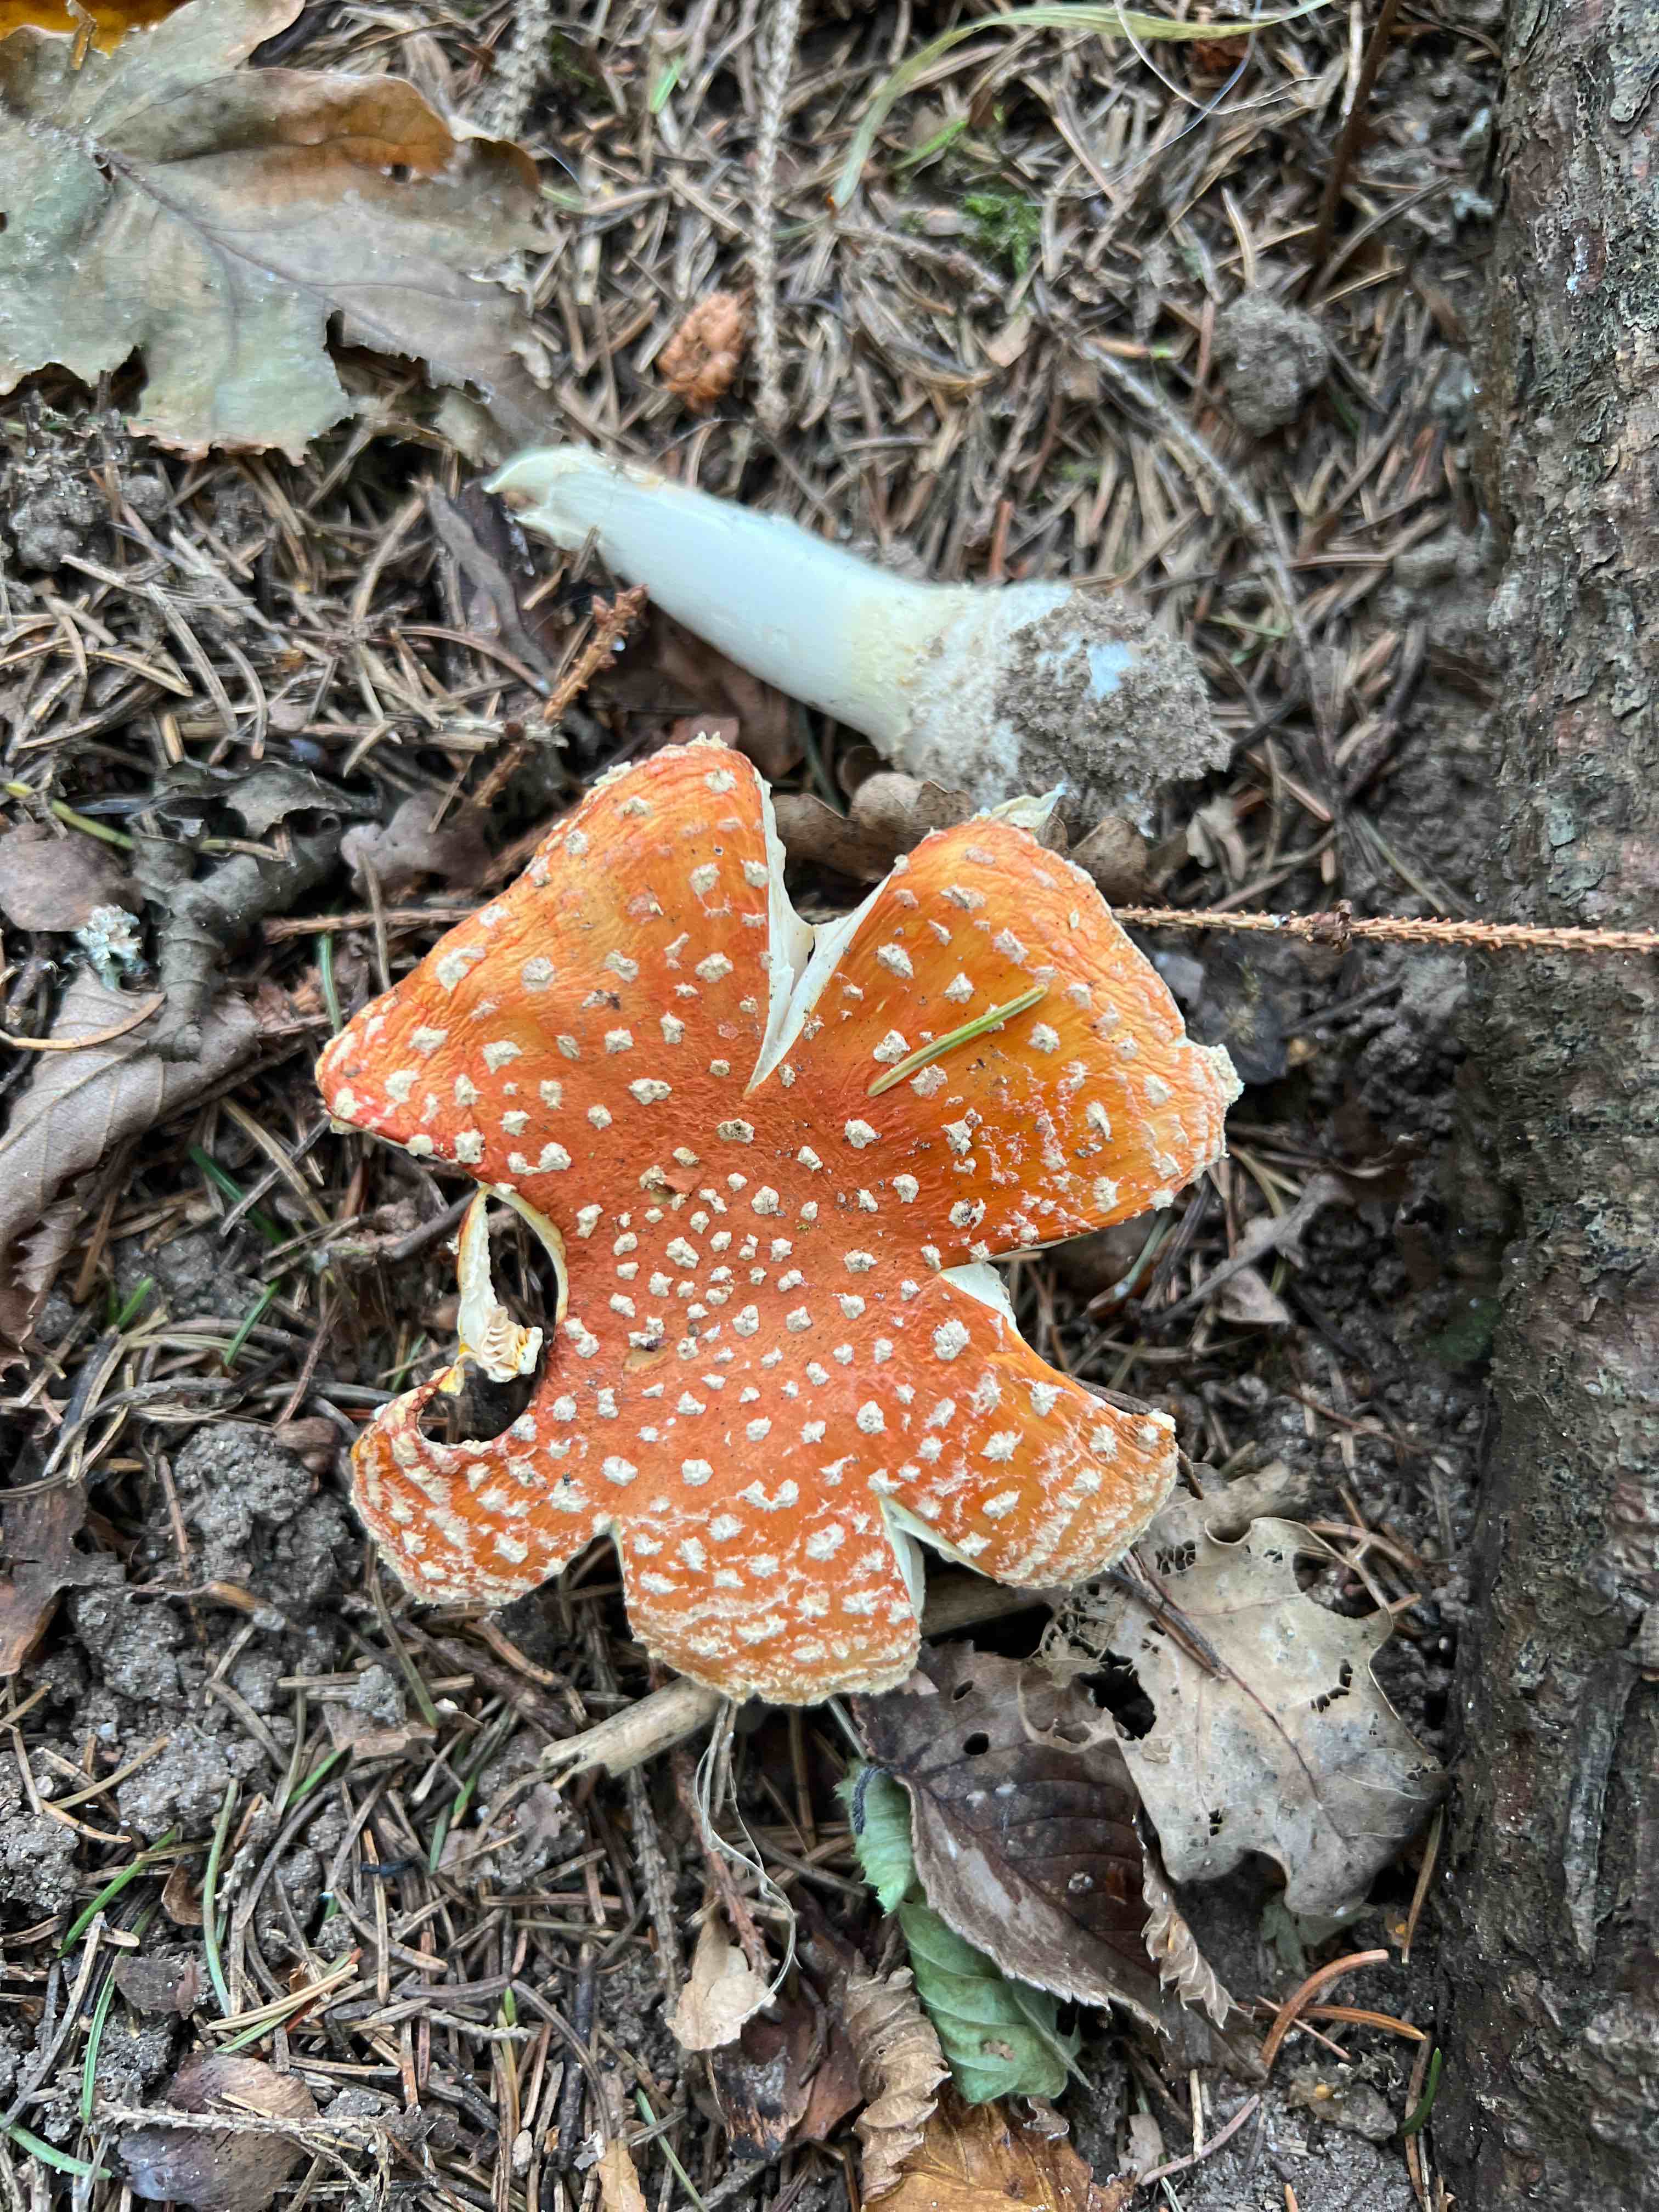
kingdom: Fungi
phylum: Basidiomycota
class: Agaricomycetes
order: Agaricales
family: Amanitaceae
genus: Amanita
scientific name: Amanita muscaria
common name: rød fluesvamp
